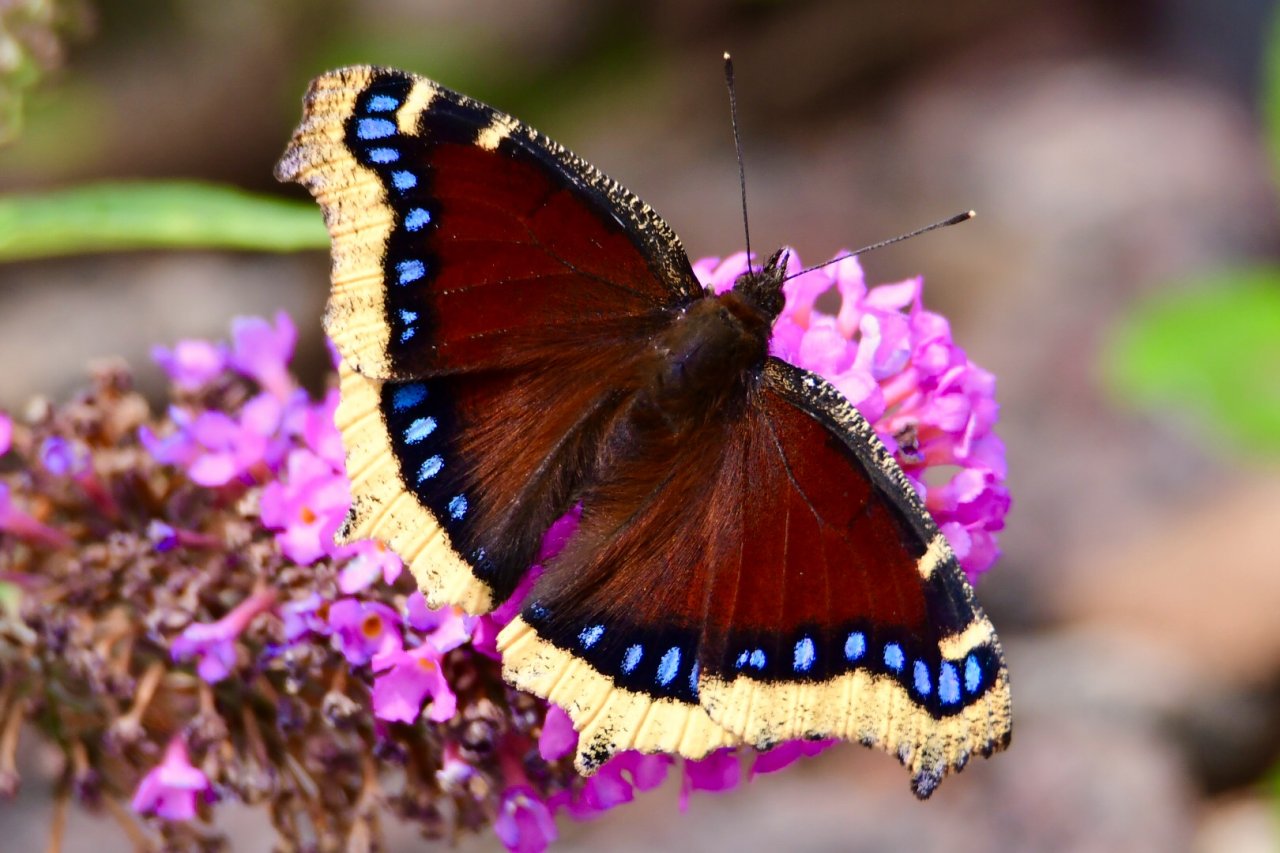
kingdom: Animalia
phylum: Arthropoda
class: Insecta
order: Lepidoptera
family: Nymphalidae
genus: Nymphalis
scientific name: Nymphalis antiopa
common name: Mourning Cloak
